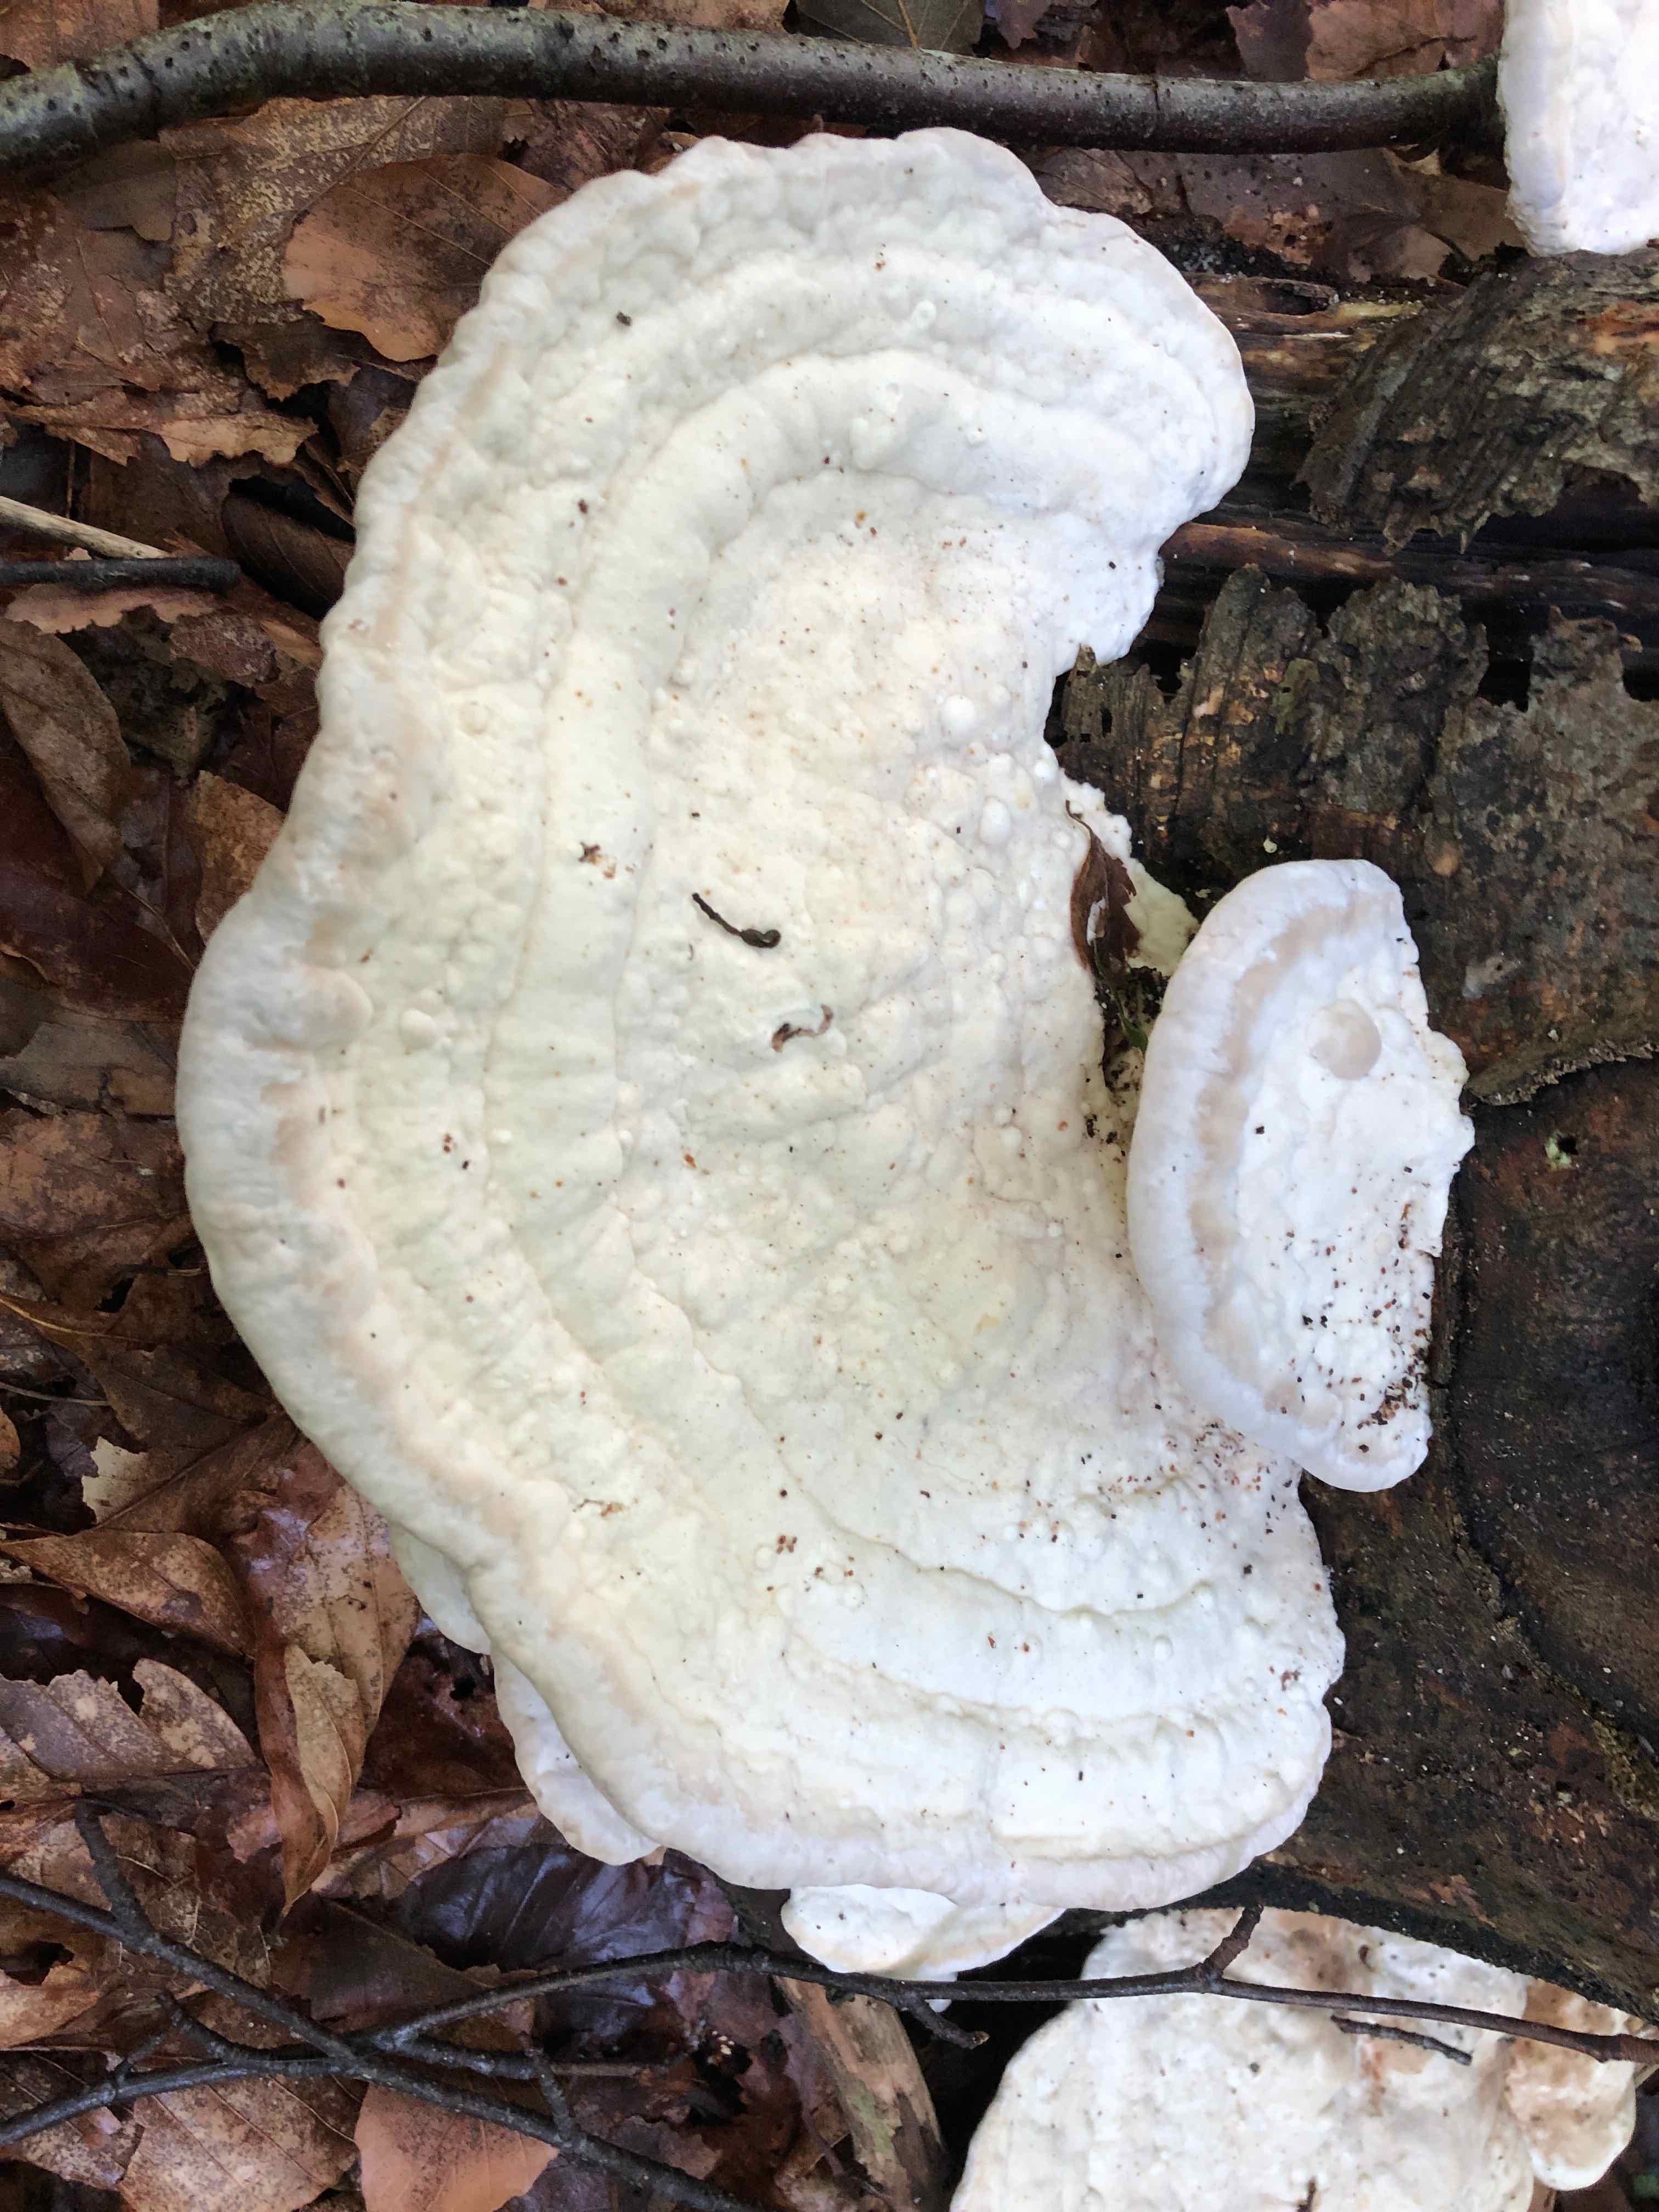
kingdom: Fungi
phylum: Basidiomycota
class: Agaricomycetes
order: Polyporales
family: Polyporaceae
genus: Trametes
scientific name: Trametes gibbosa
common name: puklet læderporesvamp
